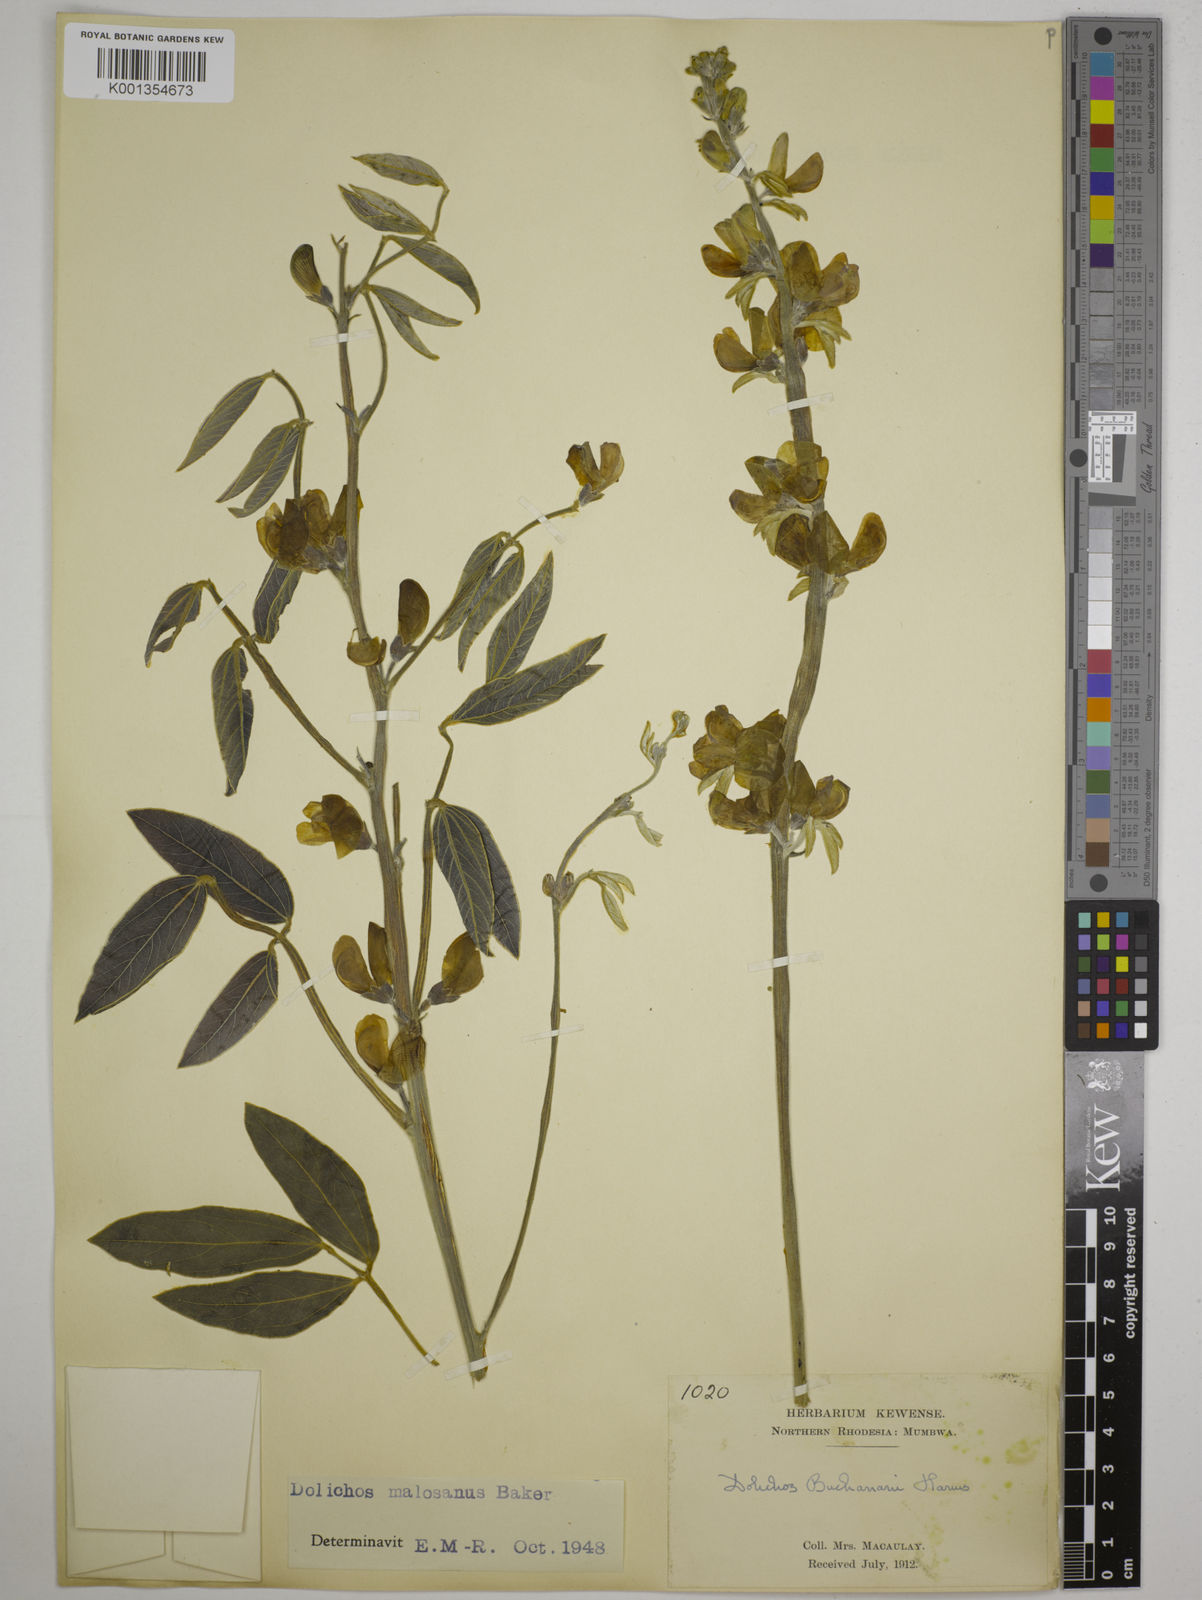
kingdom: Plantae
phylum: Tracheophyta
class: Magnoliopsida
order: Fabales
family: Fabaceae
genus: Dolichos
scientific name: Dolichos kilimandscharicus
